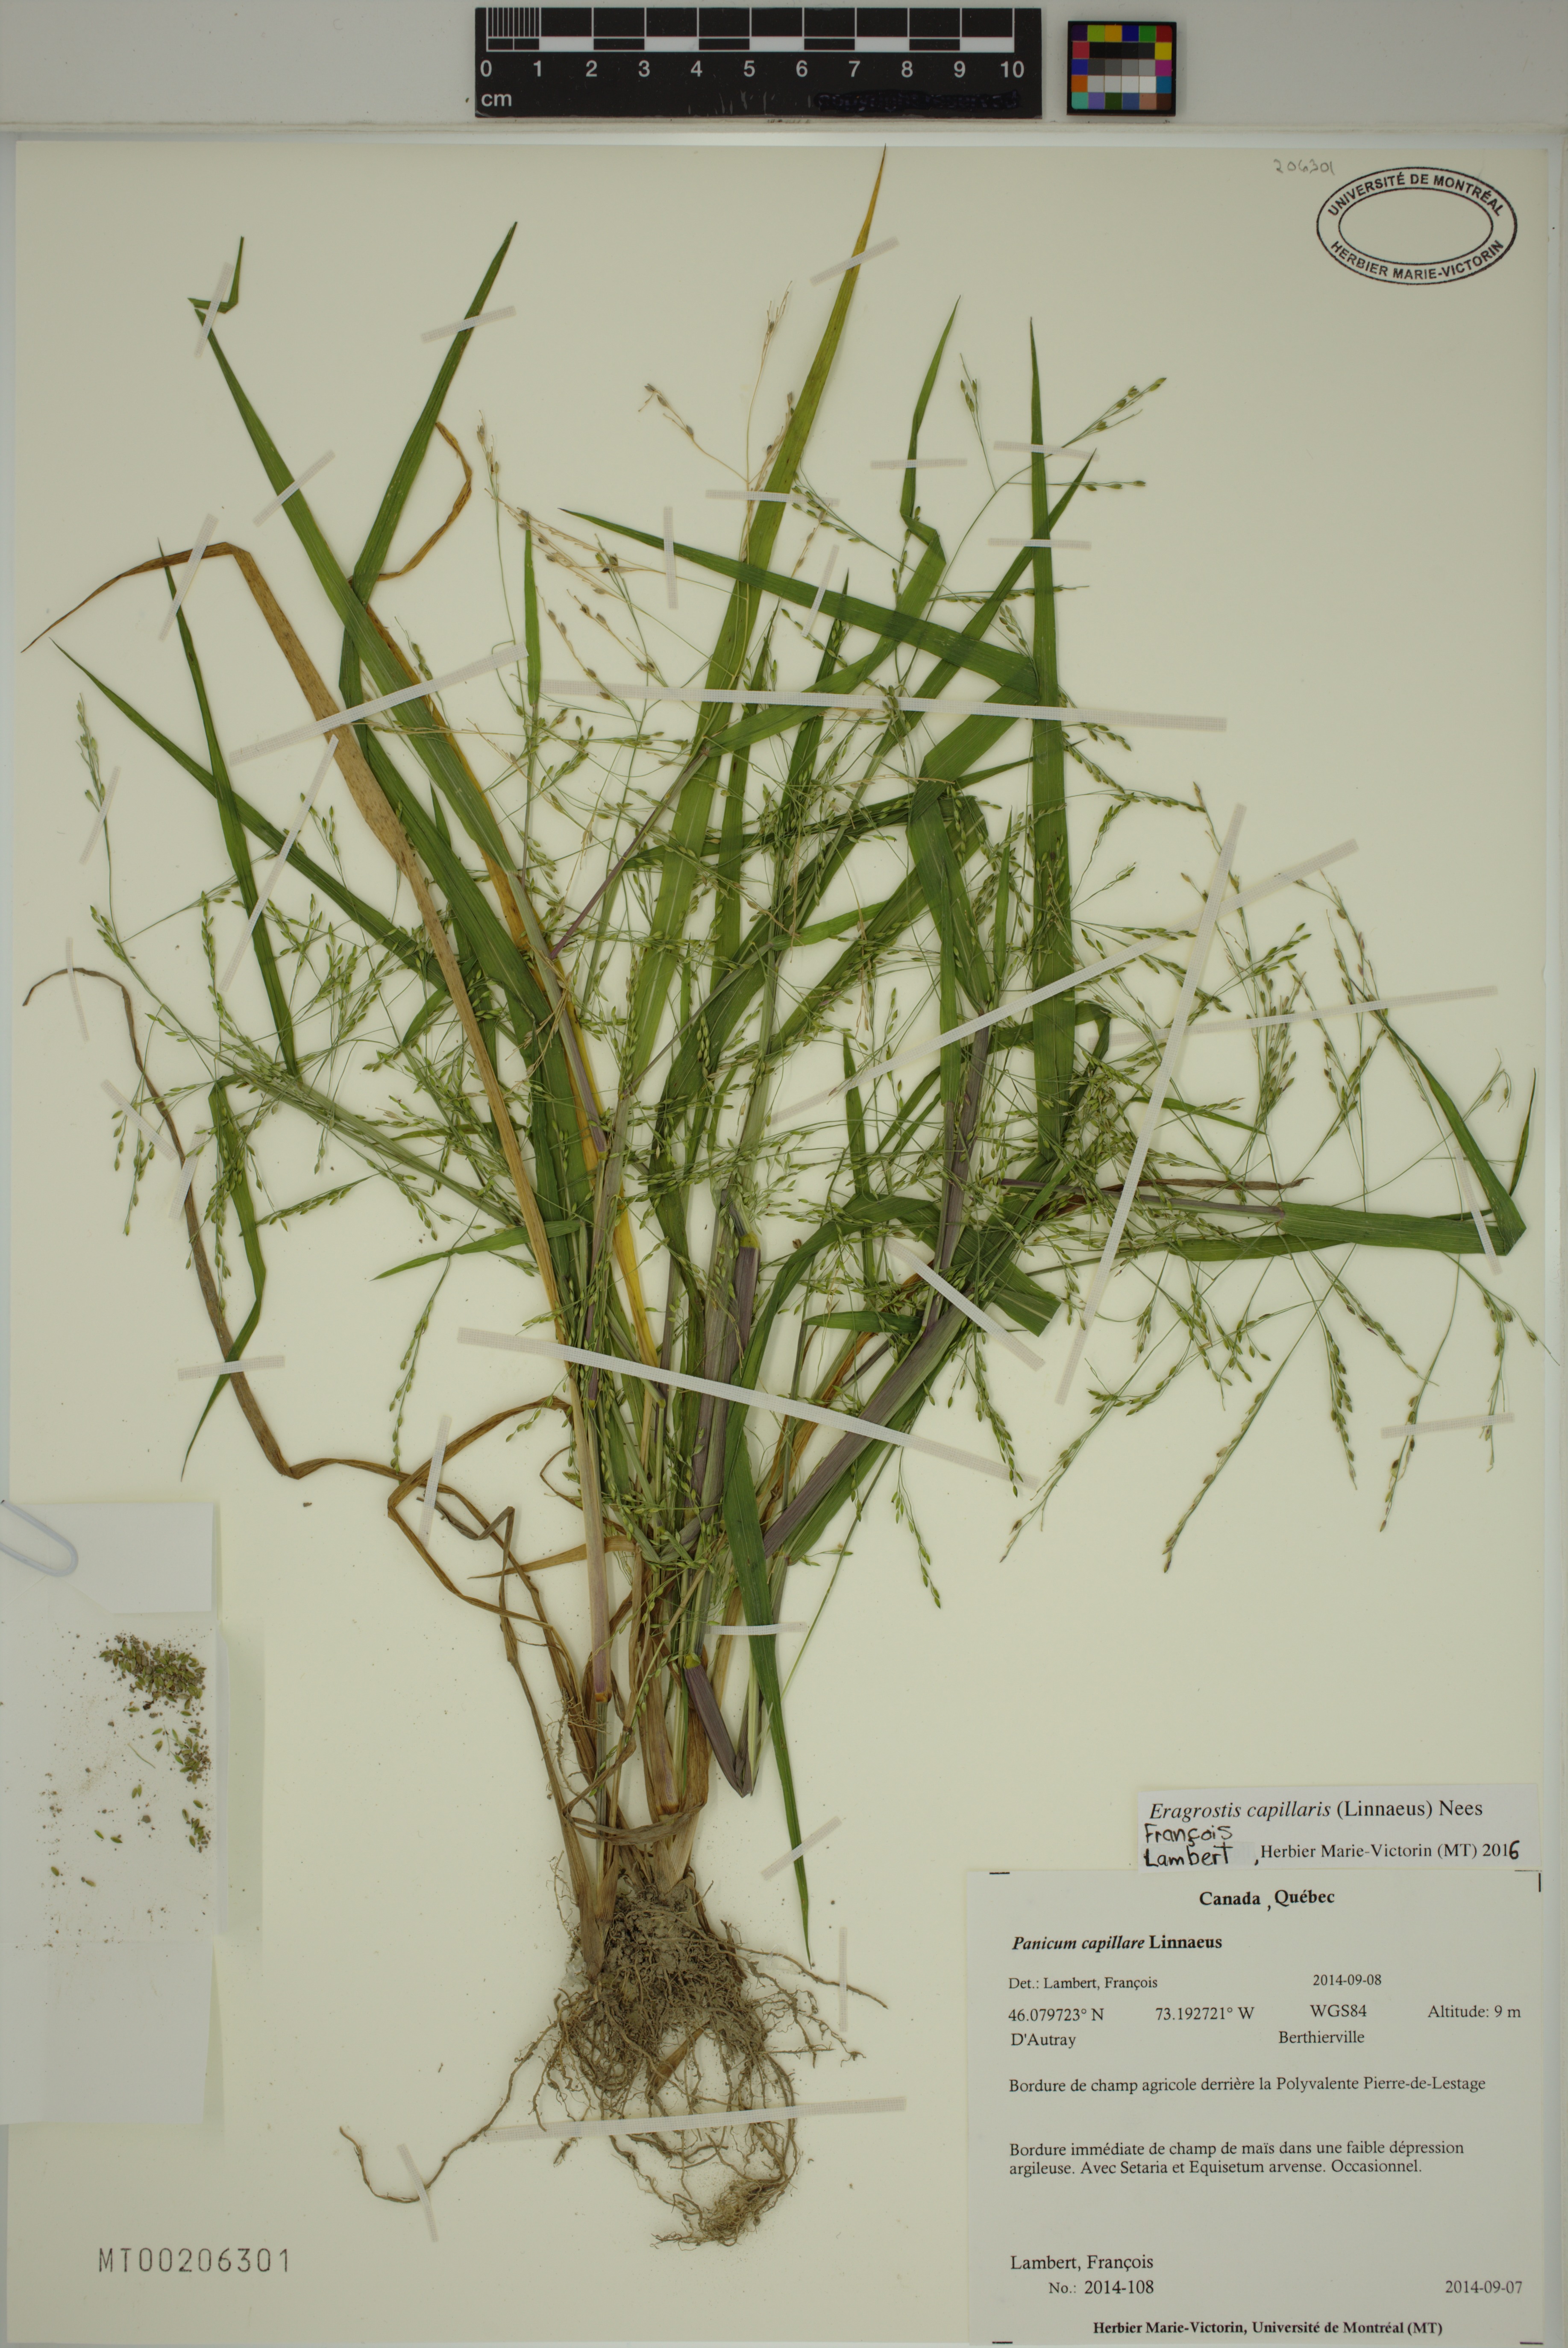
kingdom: Plantae
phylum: Tracheophyta
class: Liliopsida
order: Poales
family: Poaceae
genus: Eragrostis
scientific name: Eragrostis capillaris
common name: Hair-like lovegrass
